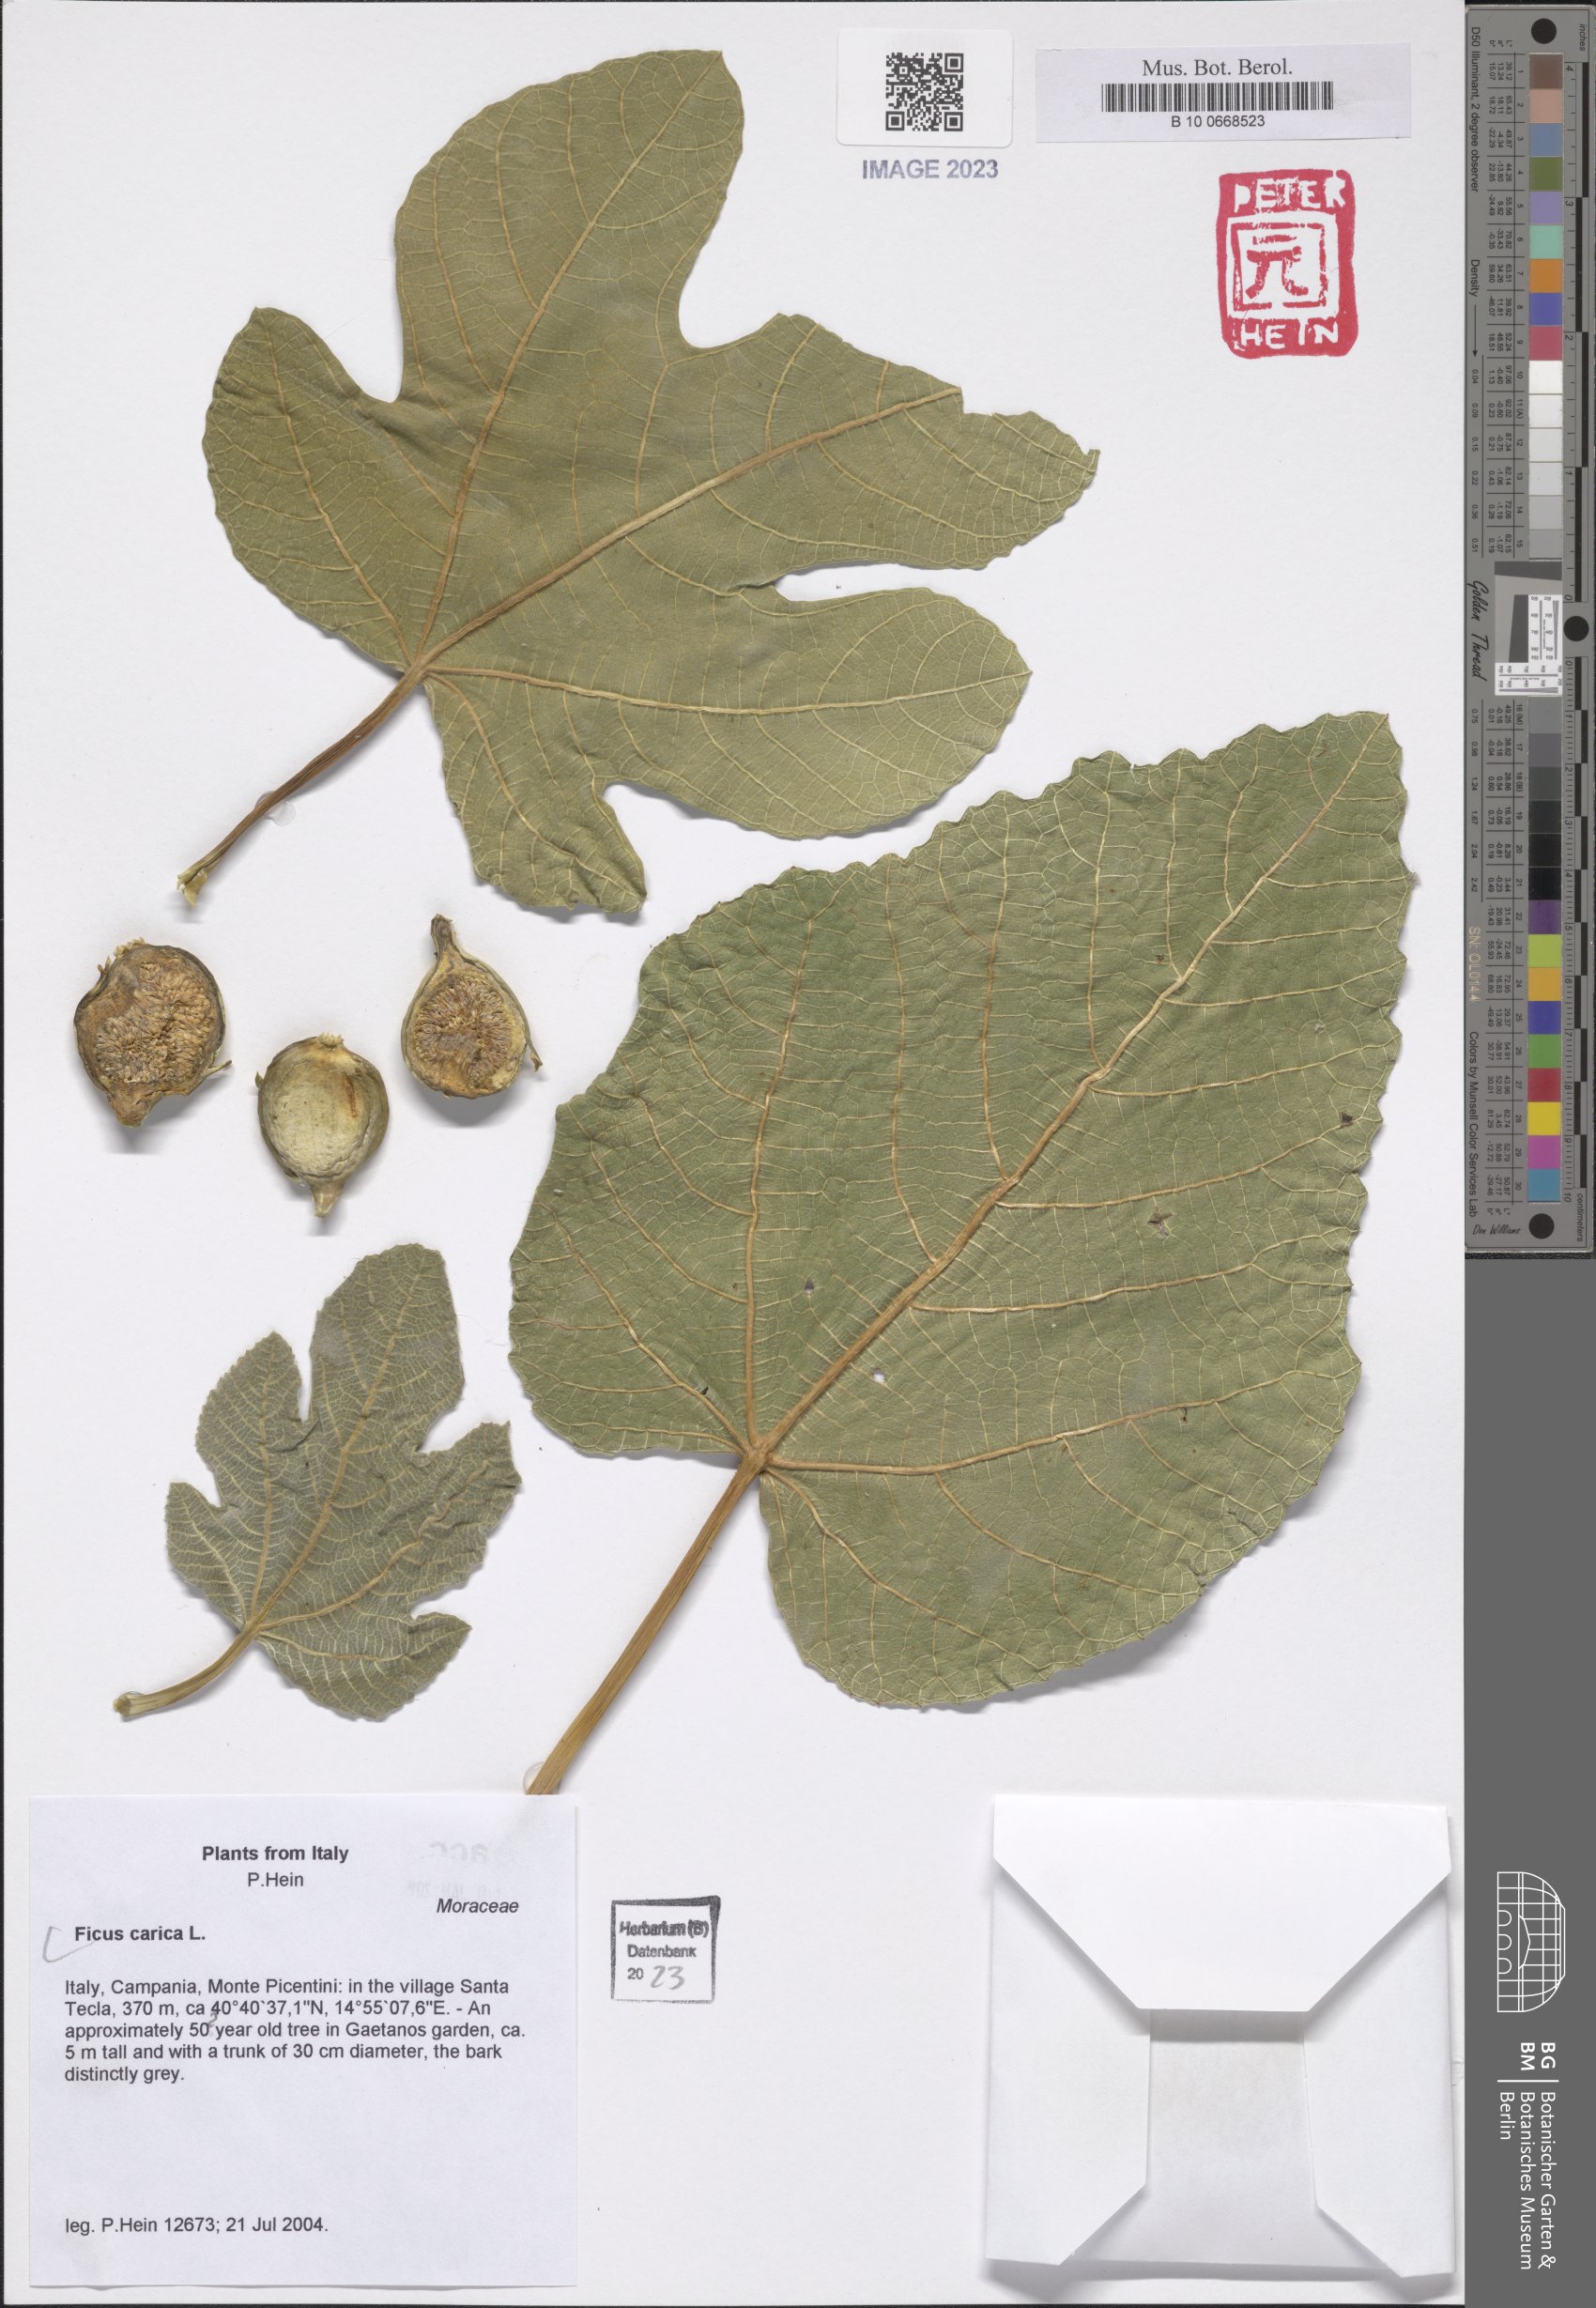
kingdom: Plantae
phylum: Tracheophyta
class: Magnoliopsida
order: Rosales
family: Moraceae
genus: Ficus
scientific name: Ficus carica
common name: Fig
